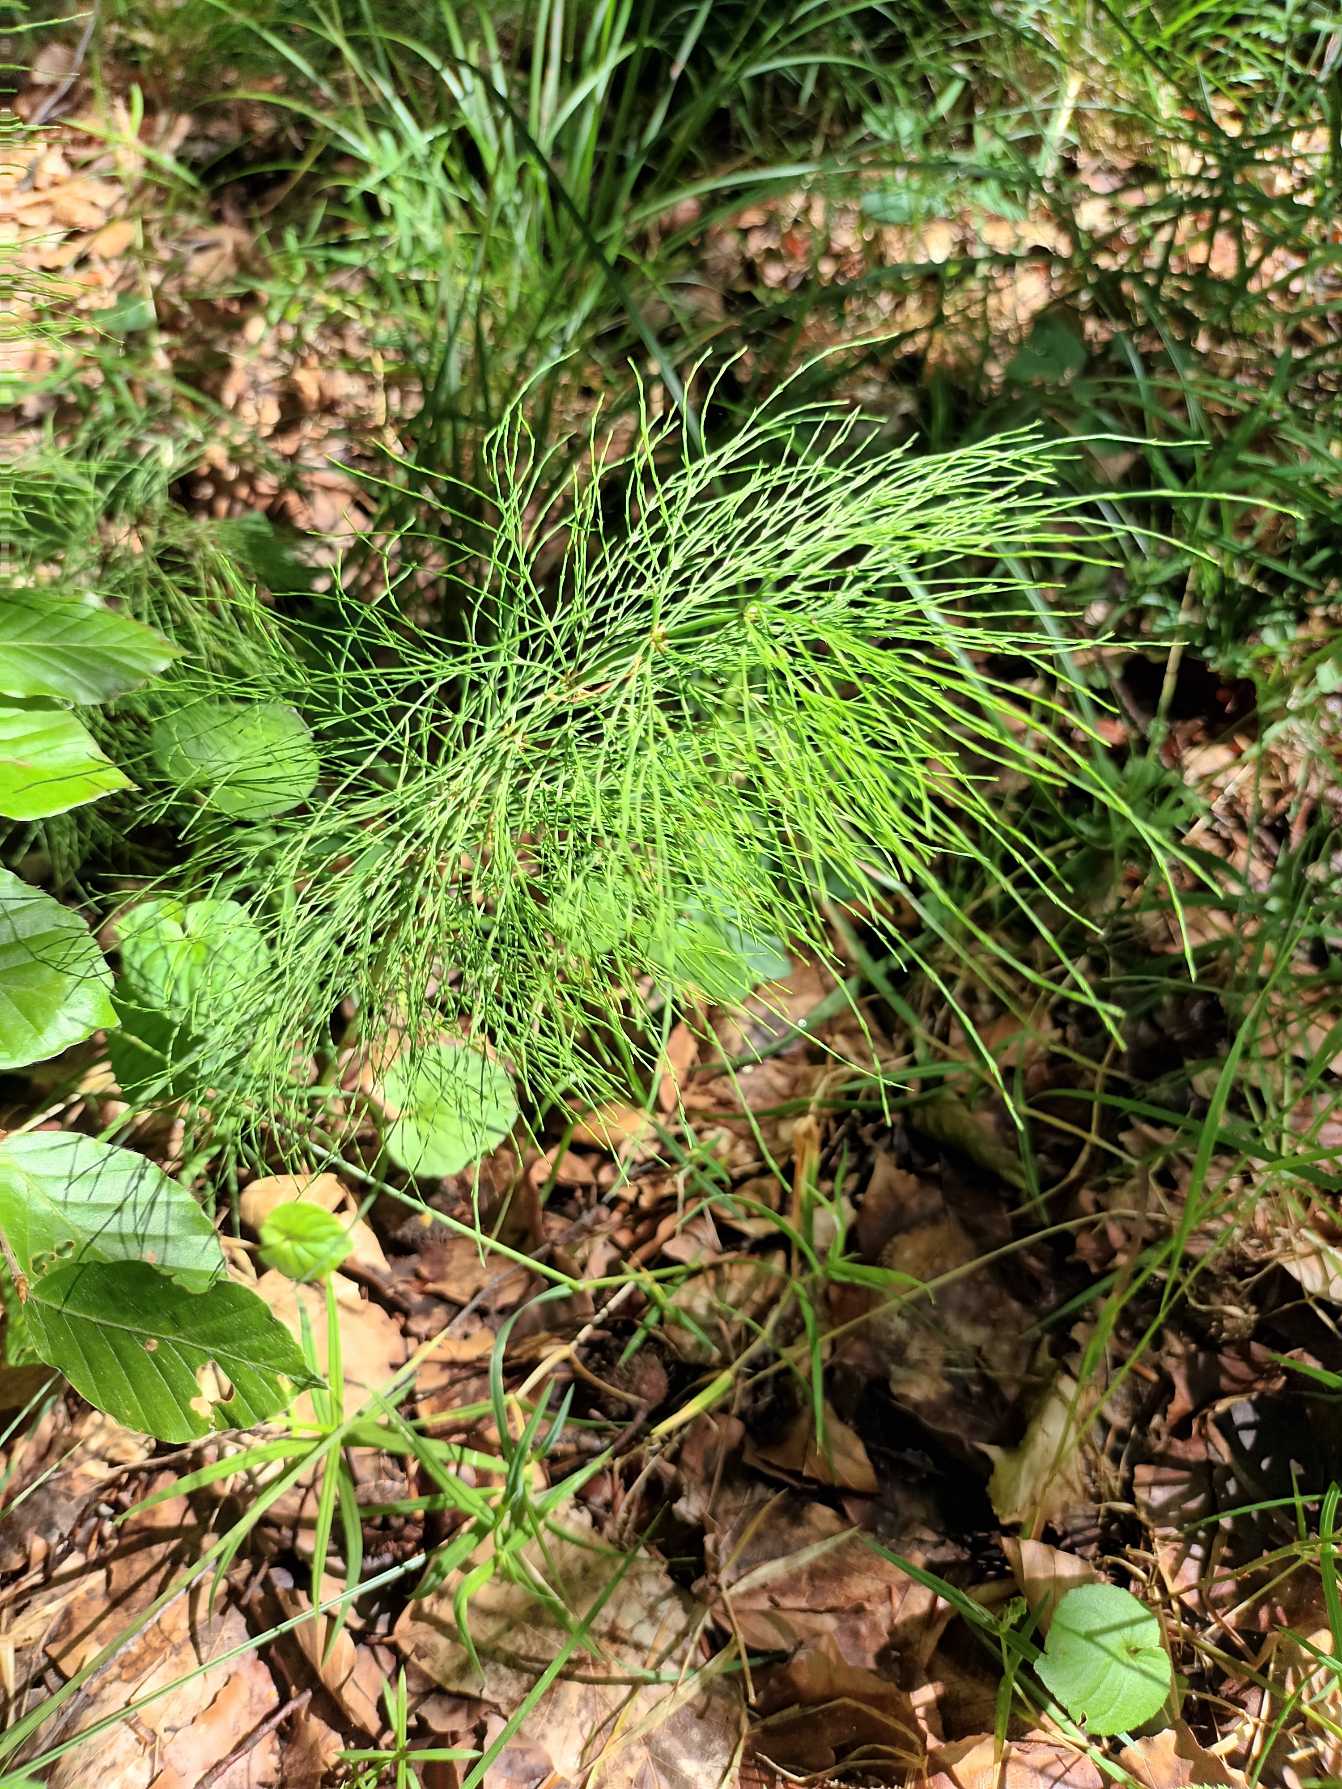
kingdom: Plantae
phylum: Tracheophyta
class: Polypodiopsida
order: Equisetales
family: Equisetaceae
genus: Equisetum
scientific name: Equisetum sylvaticum
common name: Skov-padderok
